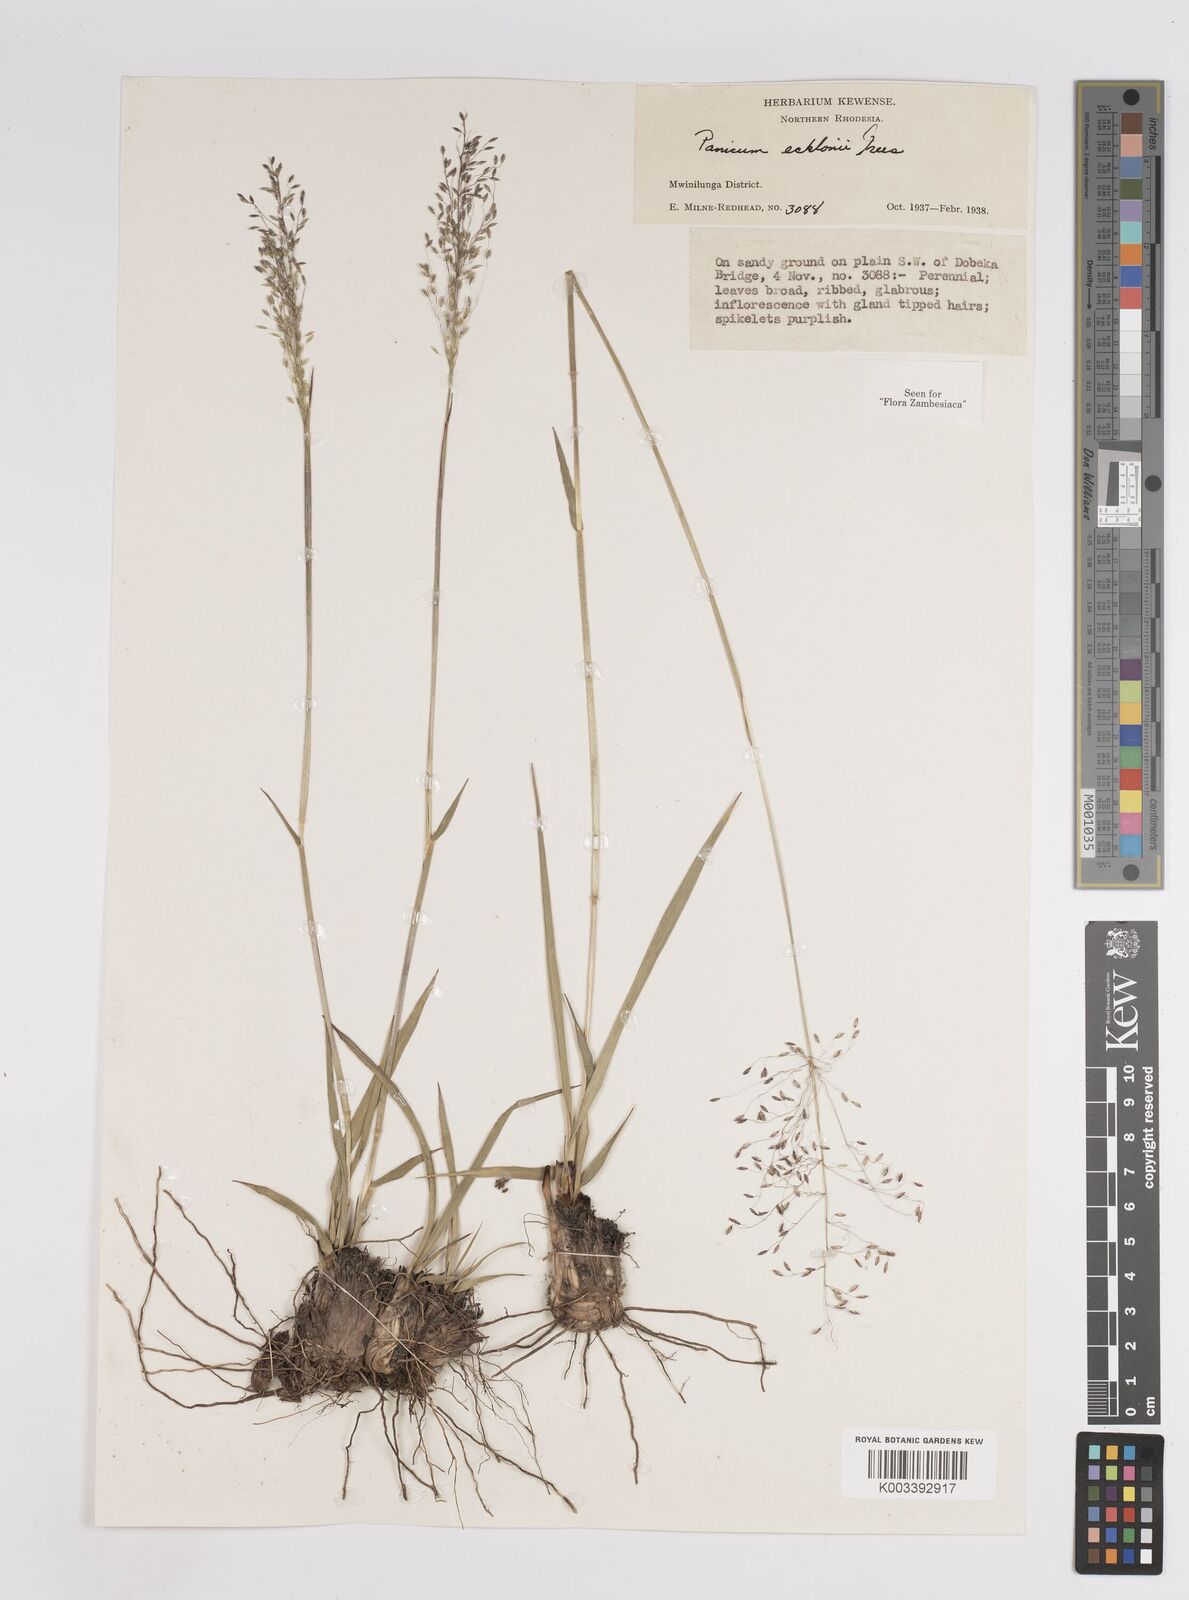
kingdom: Plantae
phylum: Tracheophyta
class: Liliopsida
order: Poales
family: Poaceae
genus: Adenochloa
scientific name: Adenochloa ecklonii
